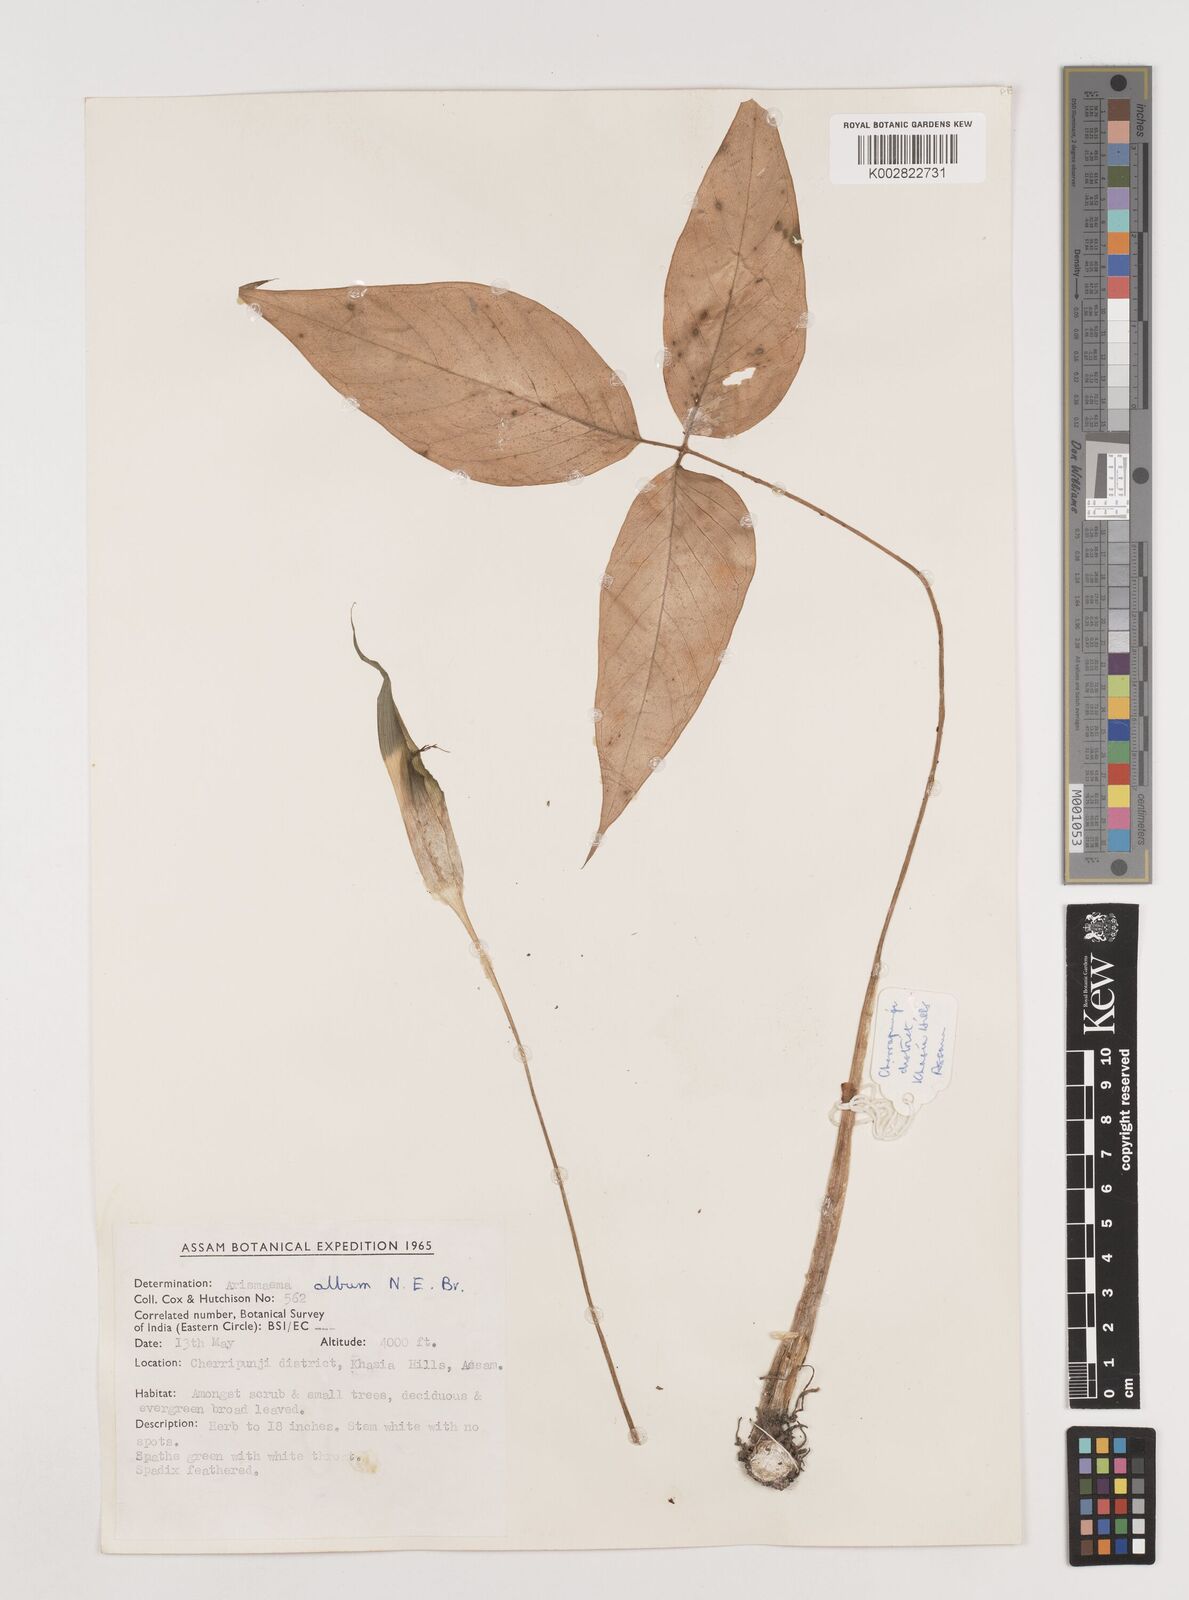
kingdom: Plantae
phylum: Tracheophyta
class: Liliopsida
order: Alismatales
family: Araceae
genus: Arisaema
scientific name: Arisaema album
